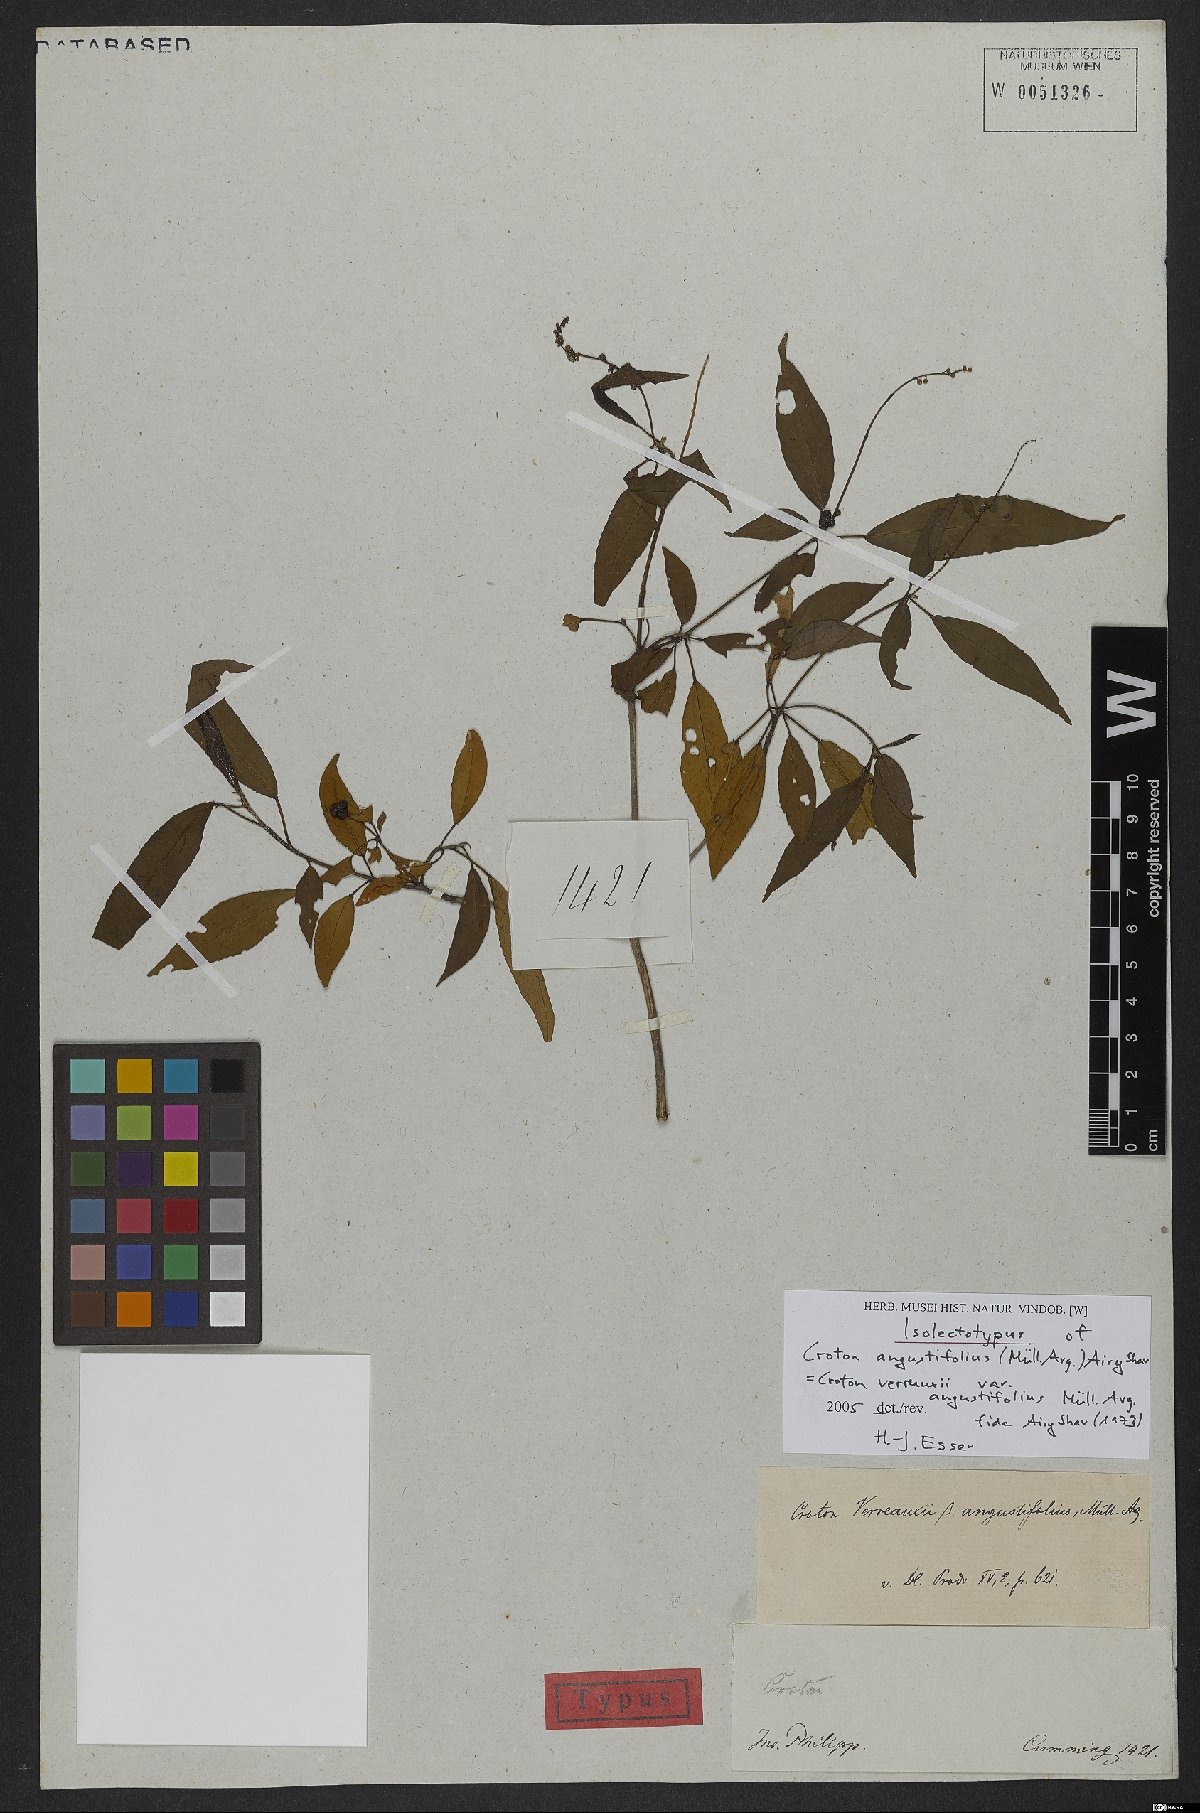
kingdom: Plantae
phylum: Tracheophyta
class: Magnoliopsida
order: Malpighiales
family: Euphorbiaceae
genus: Croton
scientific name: Croton verreauxii
